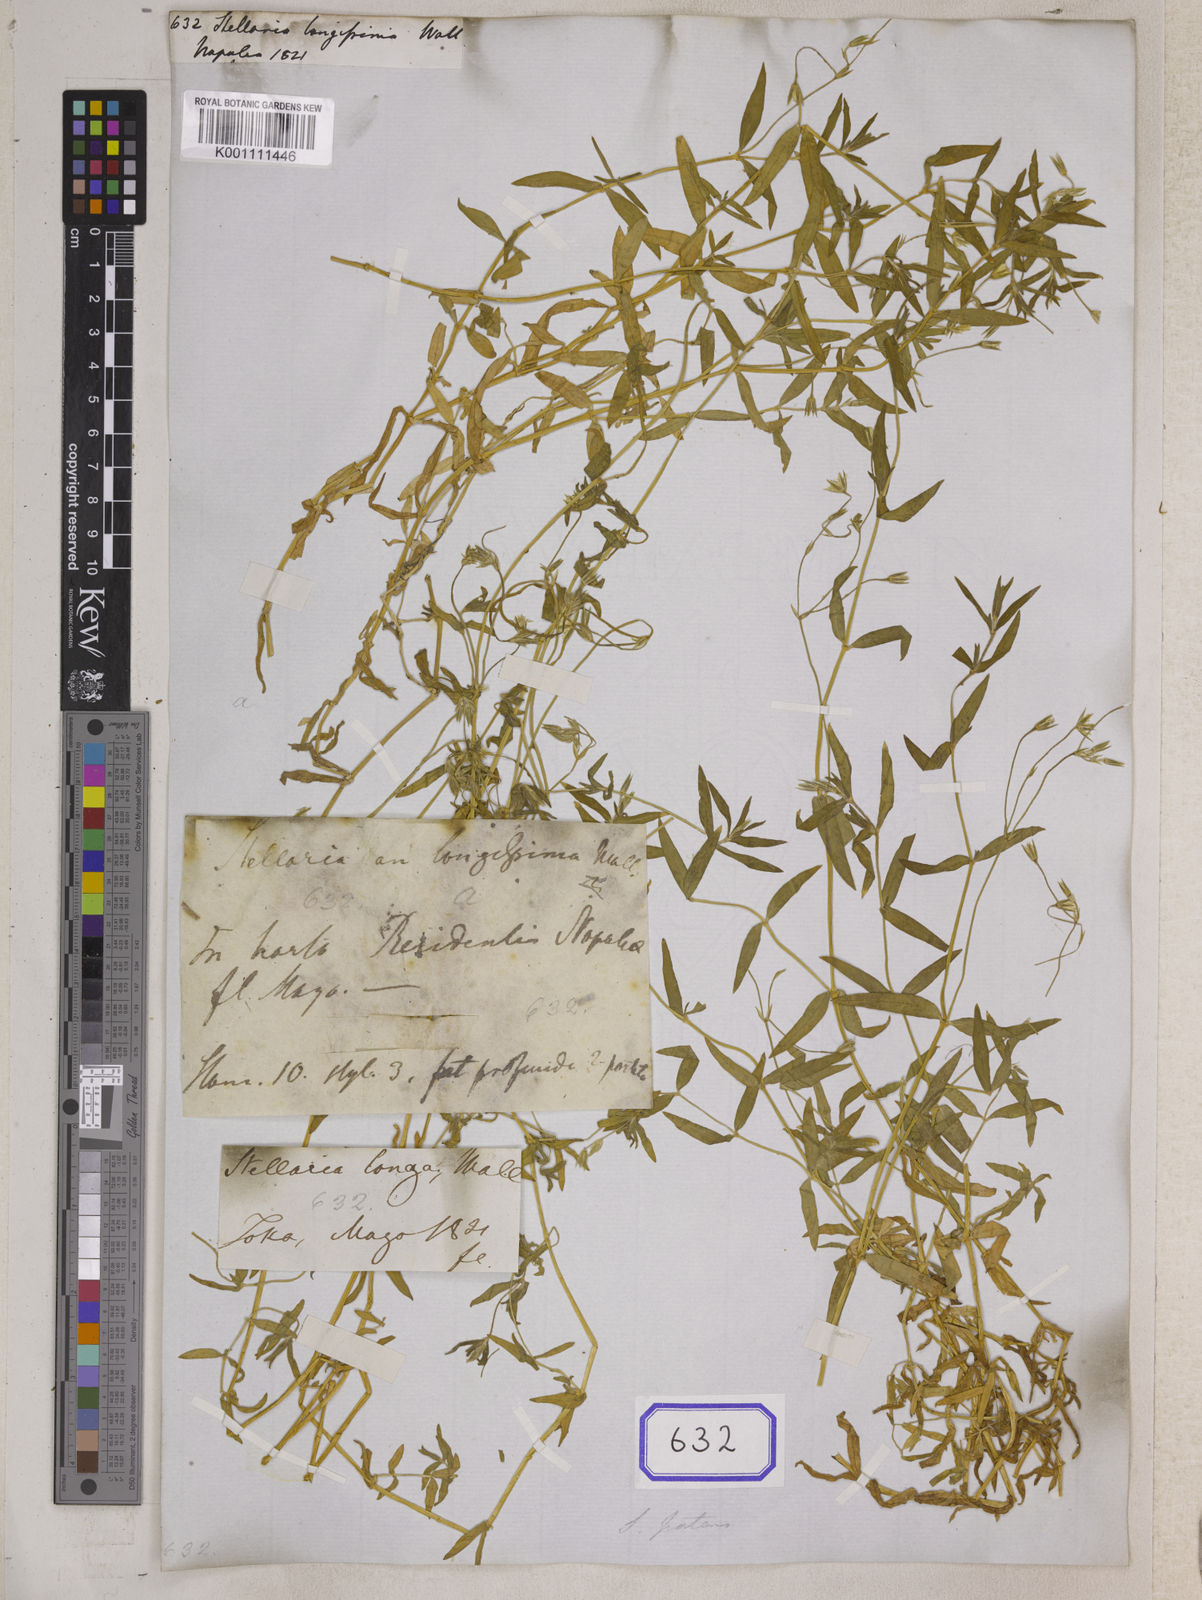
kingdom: Plantae
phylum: Tracheophyta
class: Magnoliopsida
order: Caryophyllales
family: Caryophyllaceae
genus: Stellaria
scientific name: Stellaria
